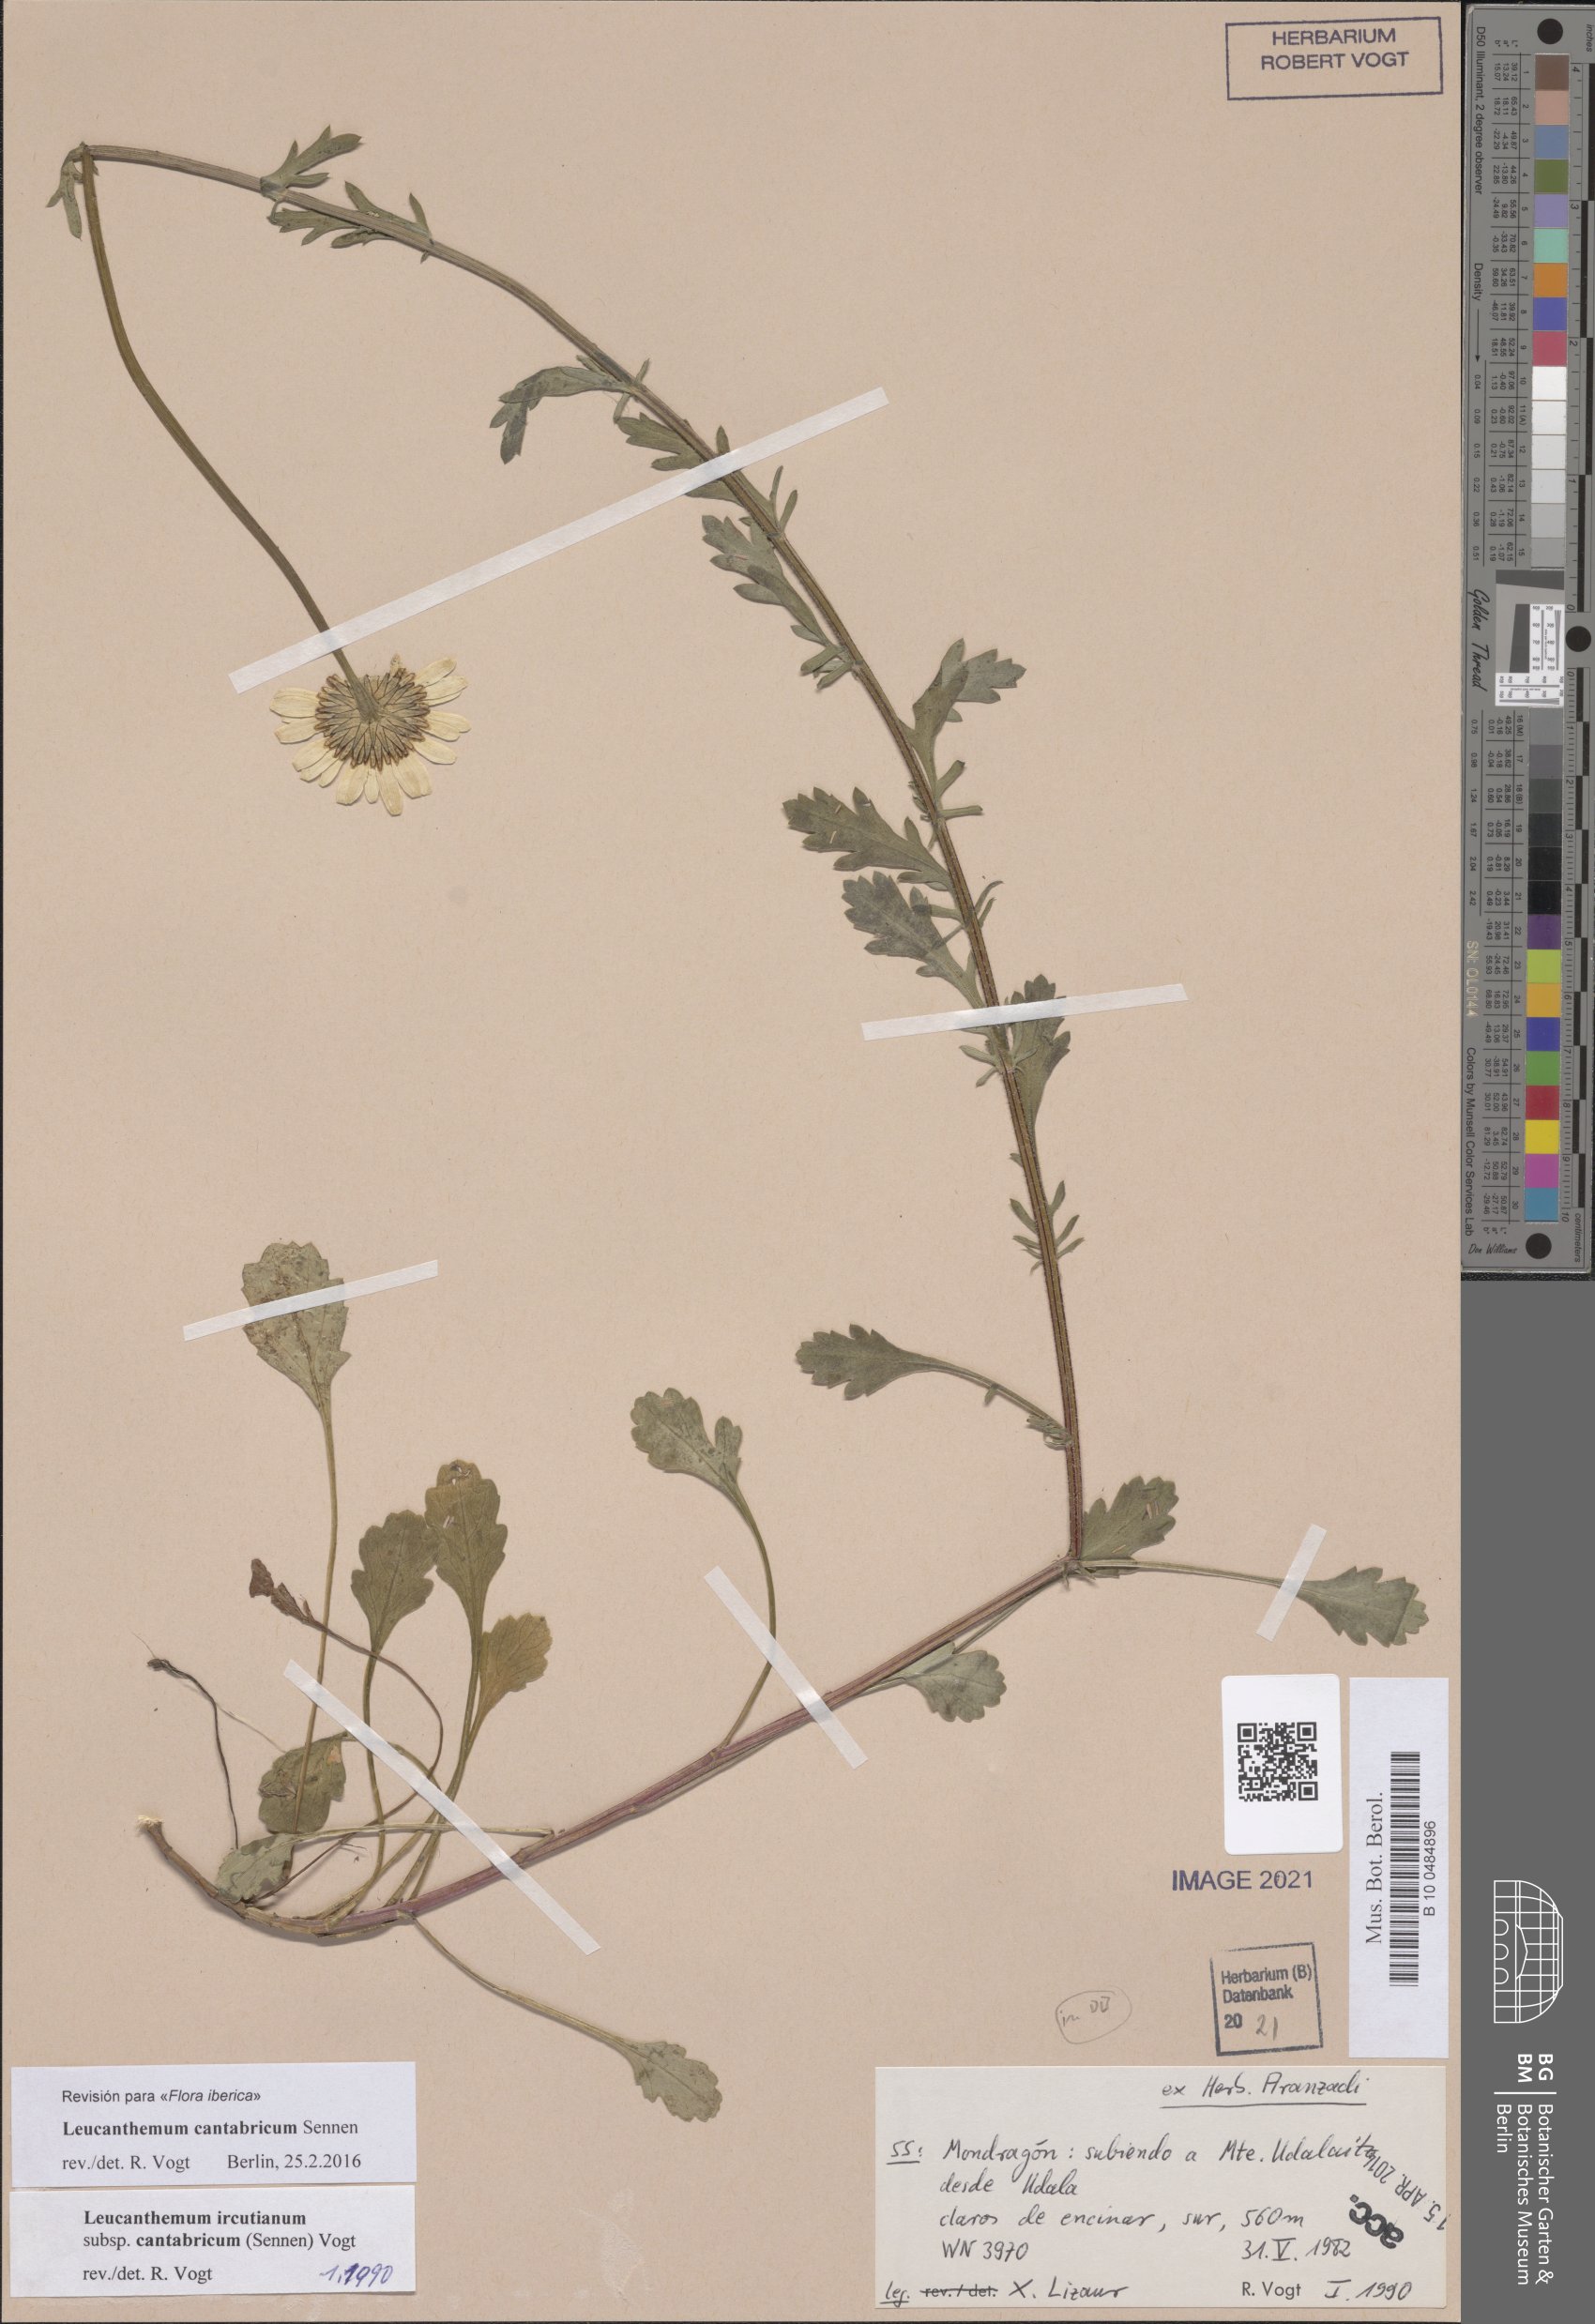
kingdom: Plantae
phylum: Tracheophyta
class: Magnoliopsida
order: Asterales
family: Asteraceae
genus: Leucanthemum
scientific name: Leucanthemum cantabricum
